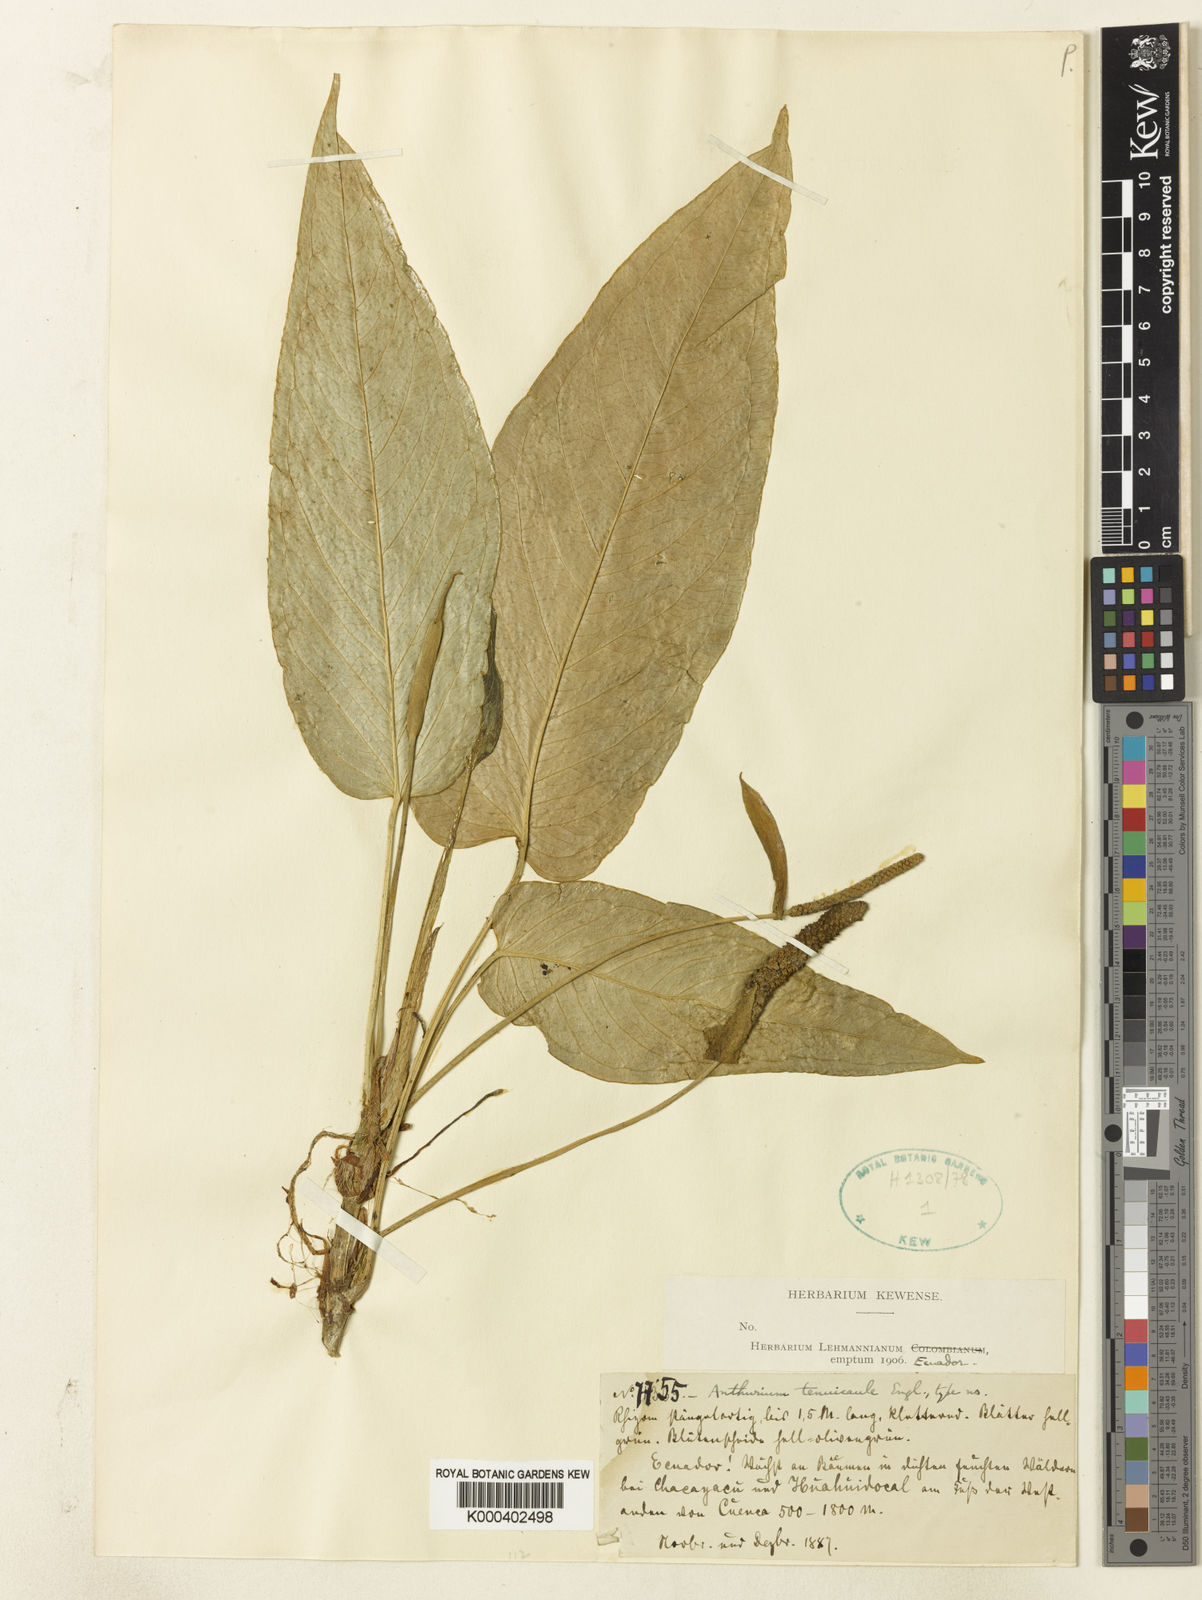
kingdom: Plantae
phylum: Tracheophyta
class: Liliopsida
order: Alismatales
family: Araceae
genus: Anthurium
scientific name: Anthurium tenuicaule
